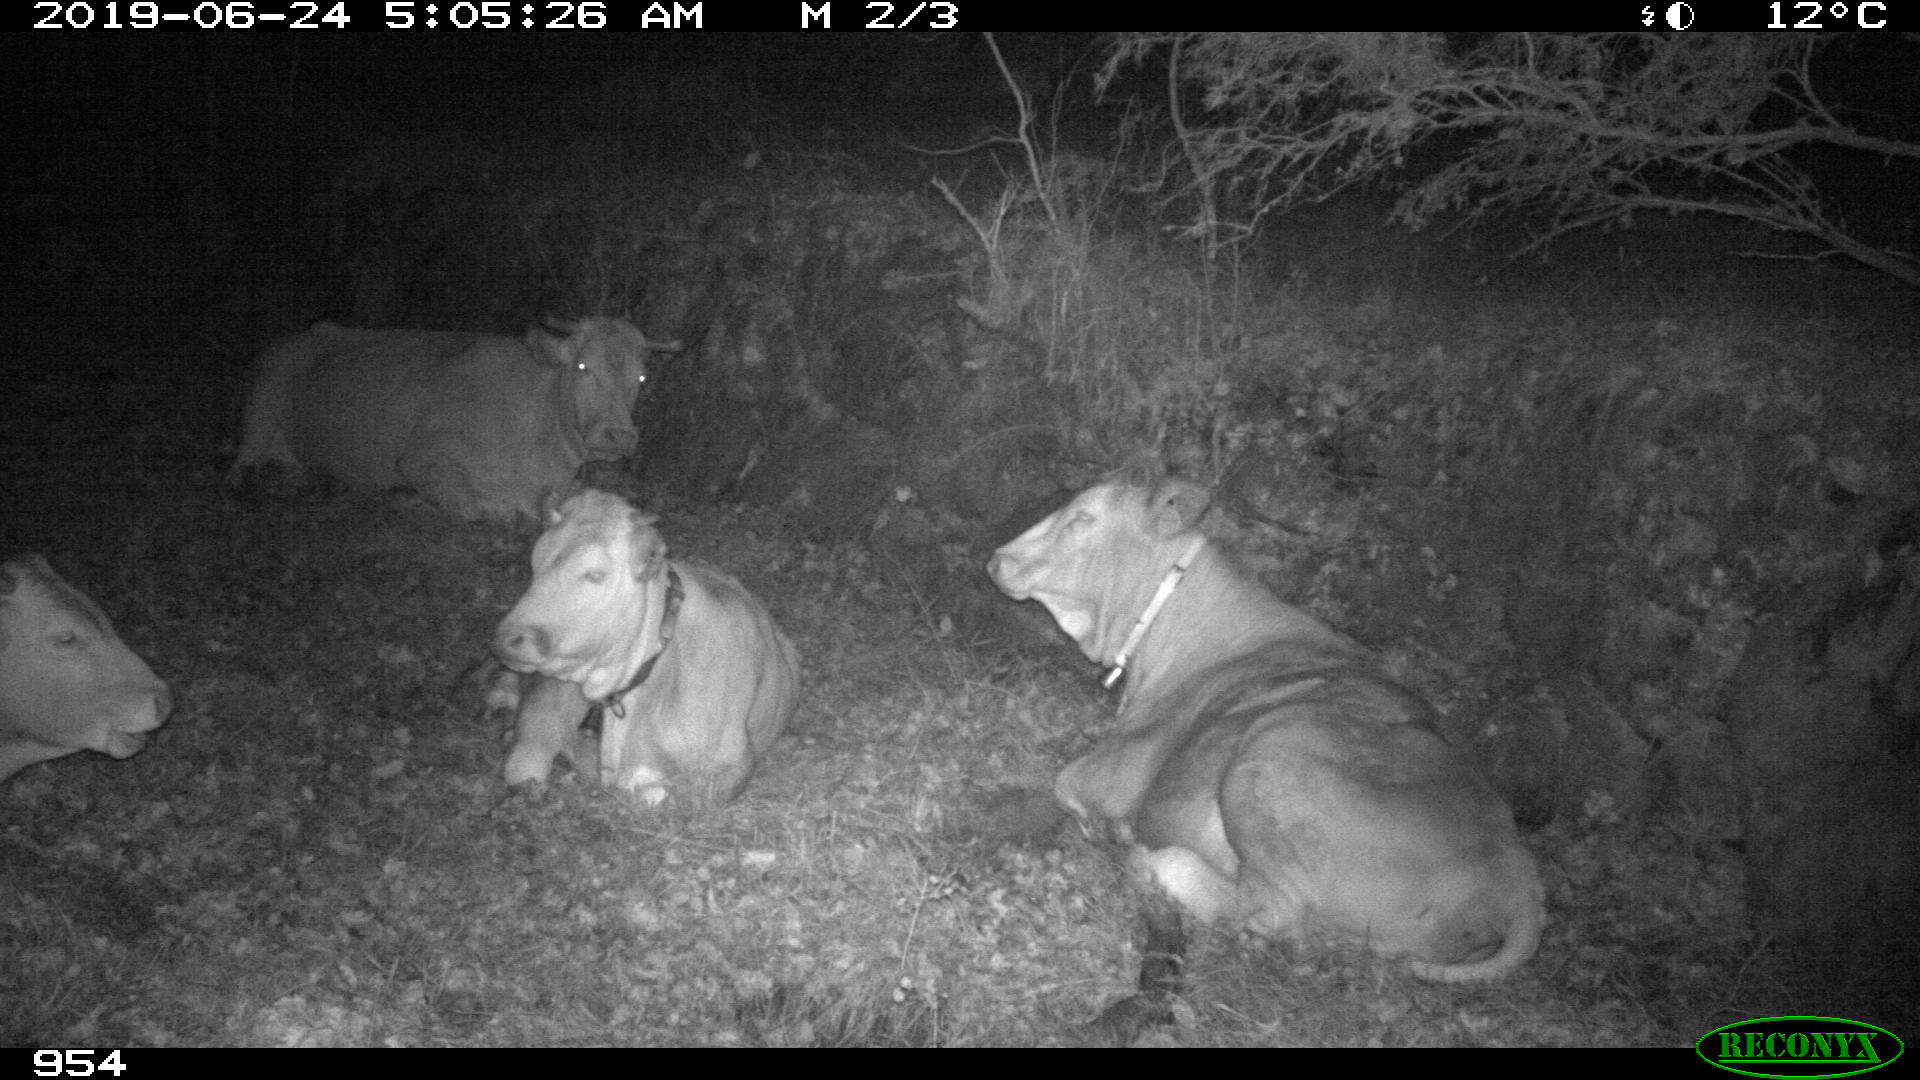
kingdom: Animalia
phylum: Chordata
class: Mammalia
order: Artiodactyla
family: Bovidae
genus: Bos
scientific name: Bos taurus
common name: Domesticated cattle
